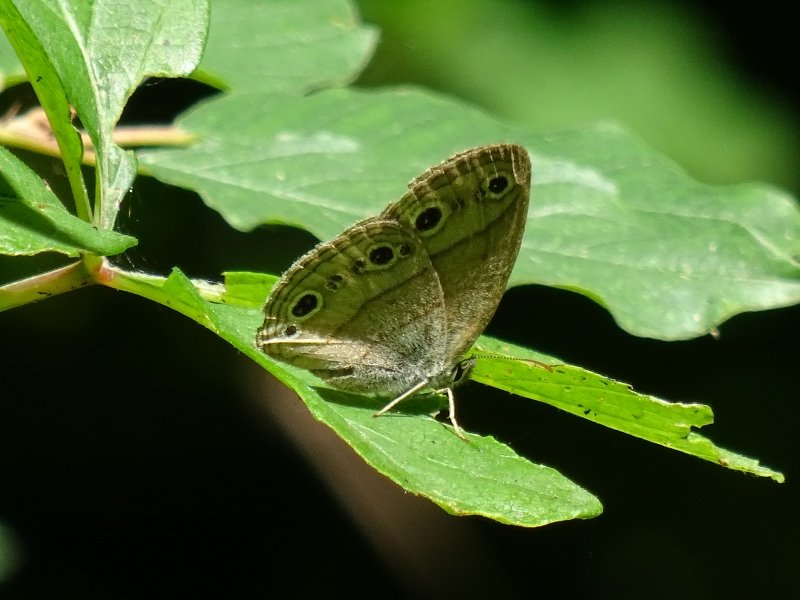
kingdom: Animalia
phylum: Arthropoda
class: Insecta
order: Lepidoptera
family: Nymphalidae
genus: Euptychia
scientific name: Euptychia cymela
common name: Little Wood Satyr
